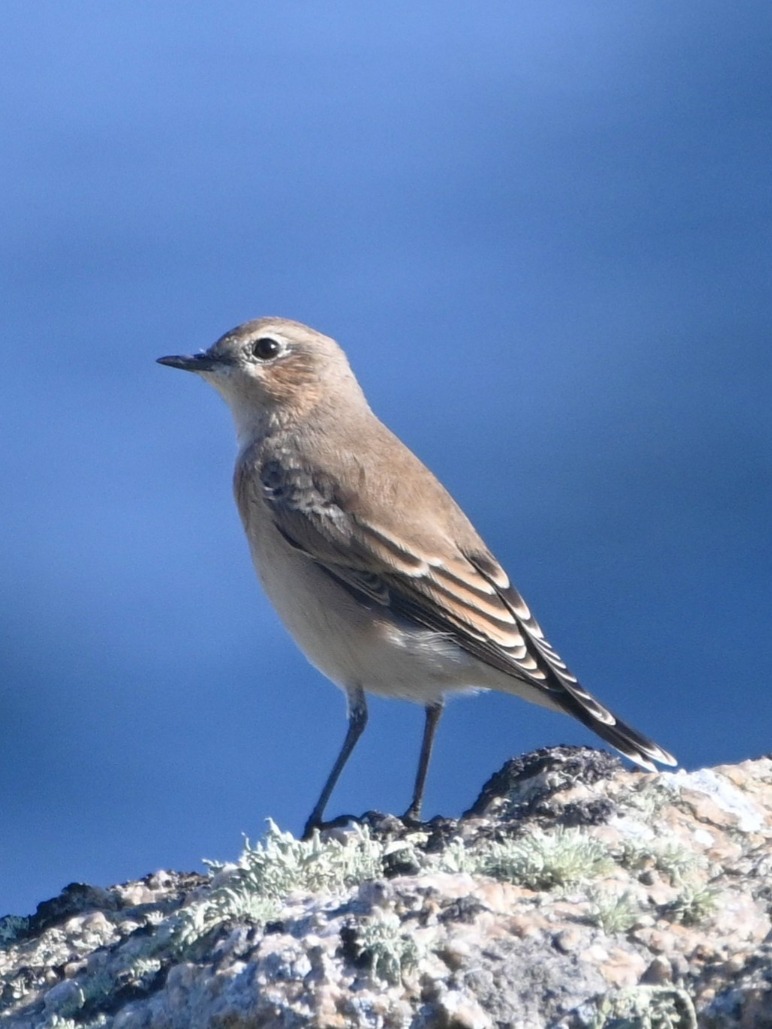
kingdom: Animalia
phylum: Chordata
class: Aves
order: Passeriformes
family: Muscicapidae
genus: Oenanthe
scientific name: Oenanthe oenanthe
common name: Stenpikker
